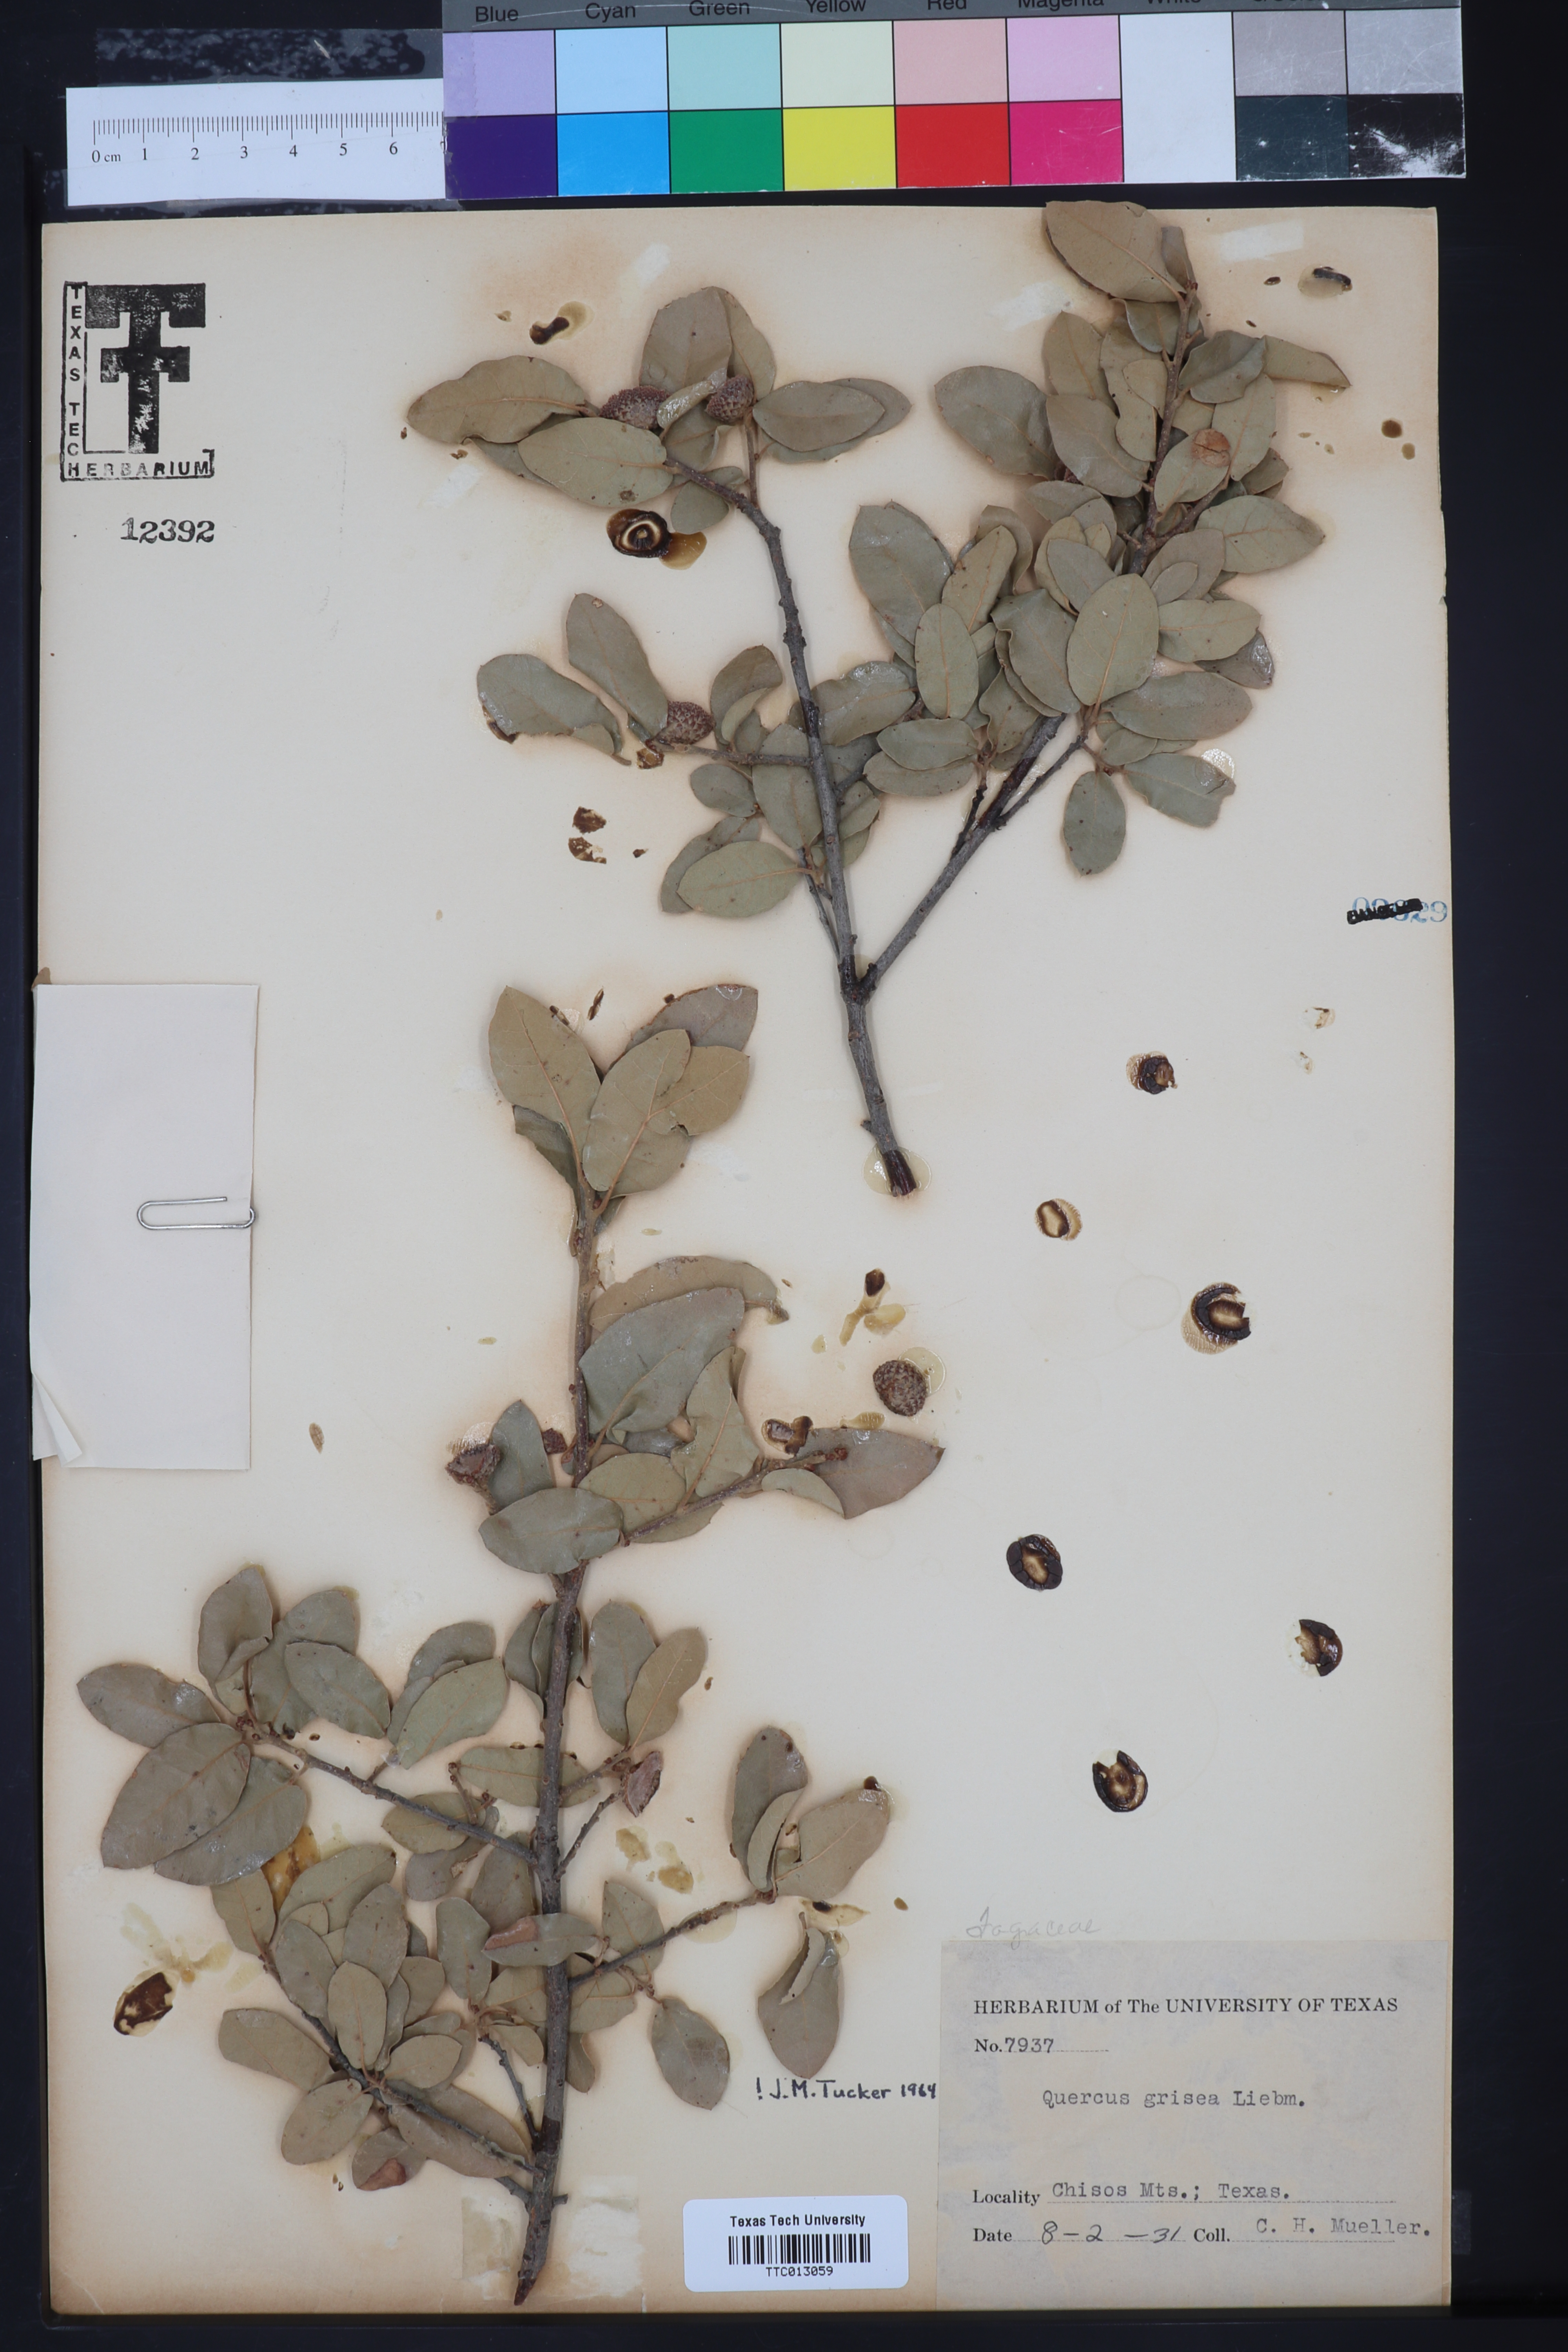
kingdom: Plantae
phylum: Tracheophyta
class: Magnoliopsida
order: Fagales
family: Fagaceae
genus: Quercus
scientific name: Quercus grisea
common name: Gray oak
